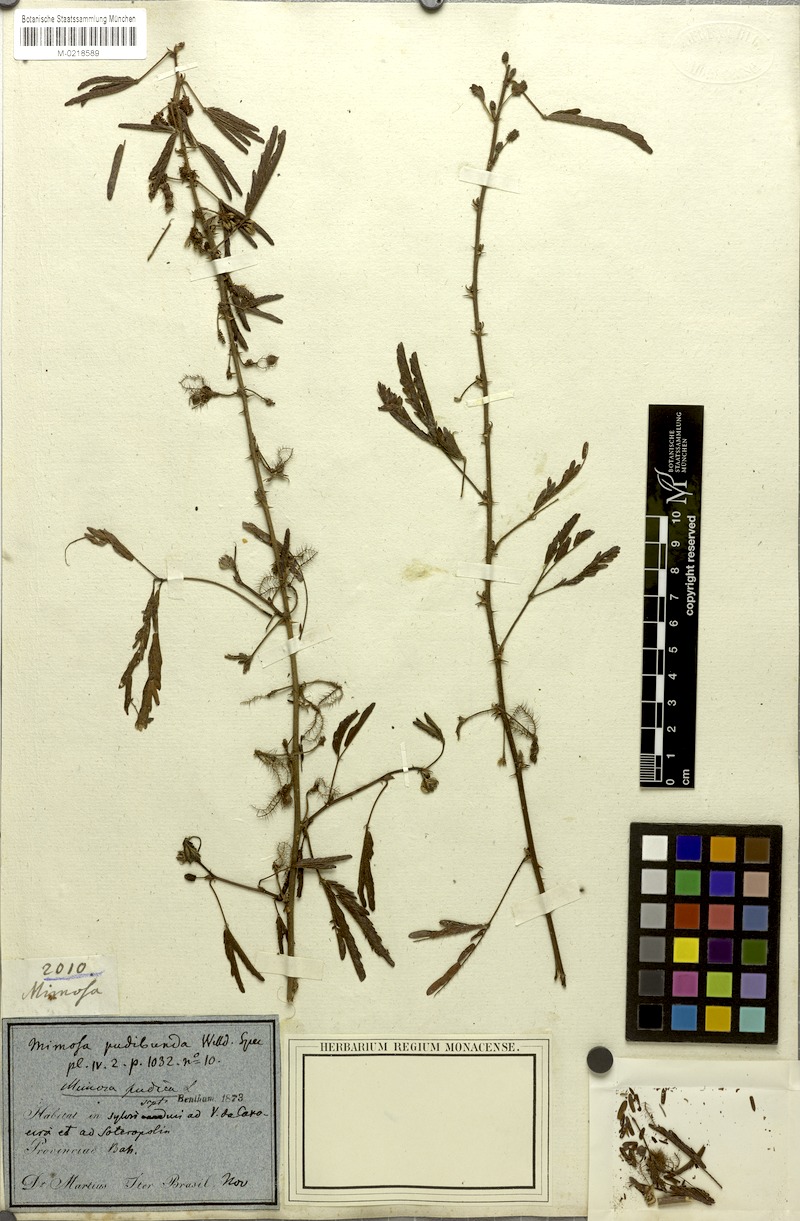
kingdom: Plantae
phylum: Tracheophyta
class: Magnoliopsida
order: Fabales
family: Fabaceae
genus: Mimosa
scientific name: Mimosa pudica
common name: Sensitive plant
